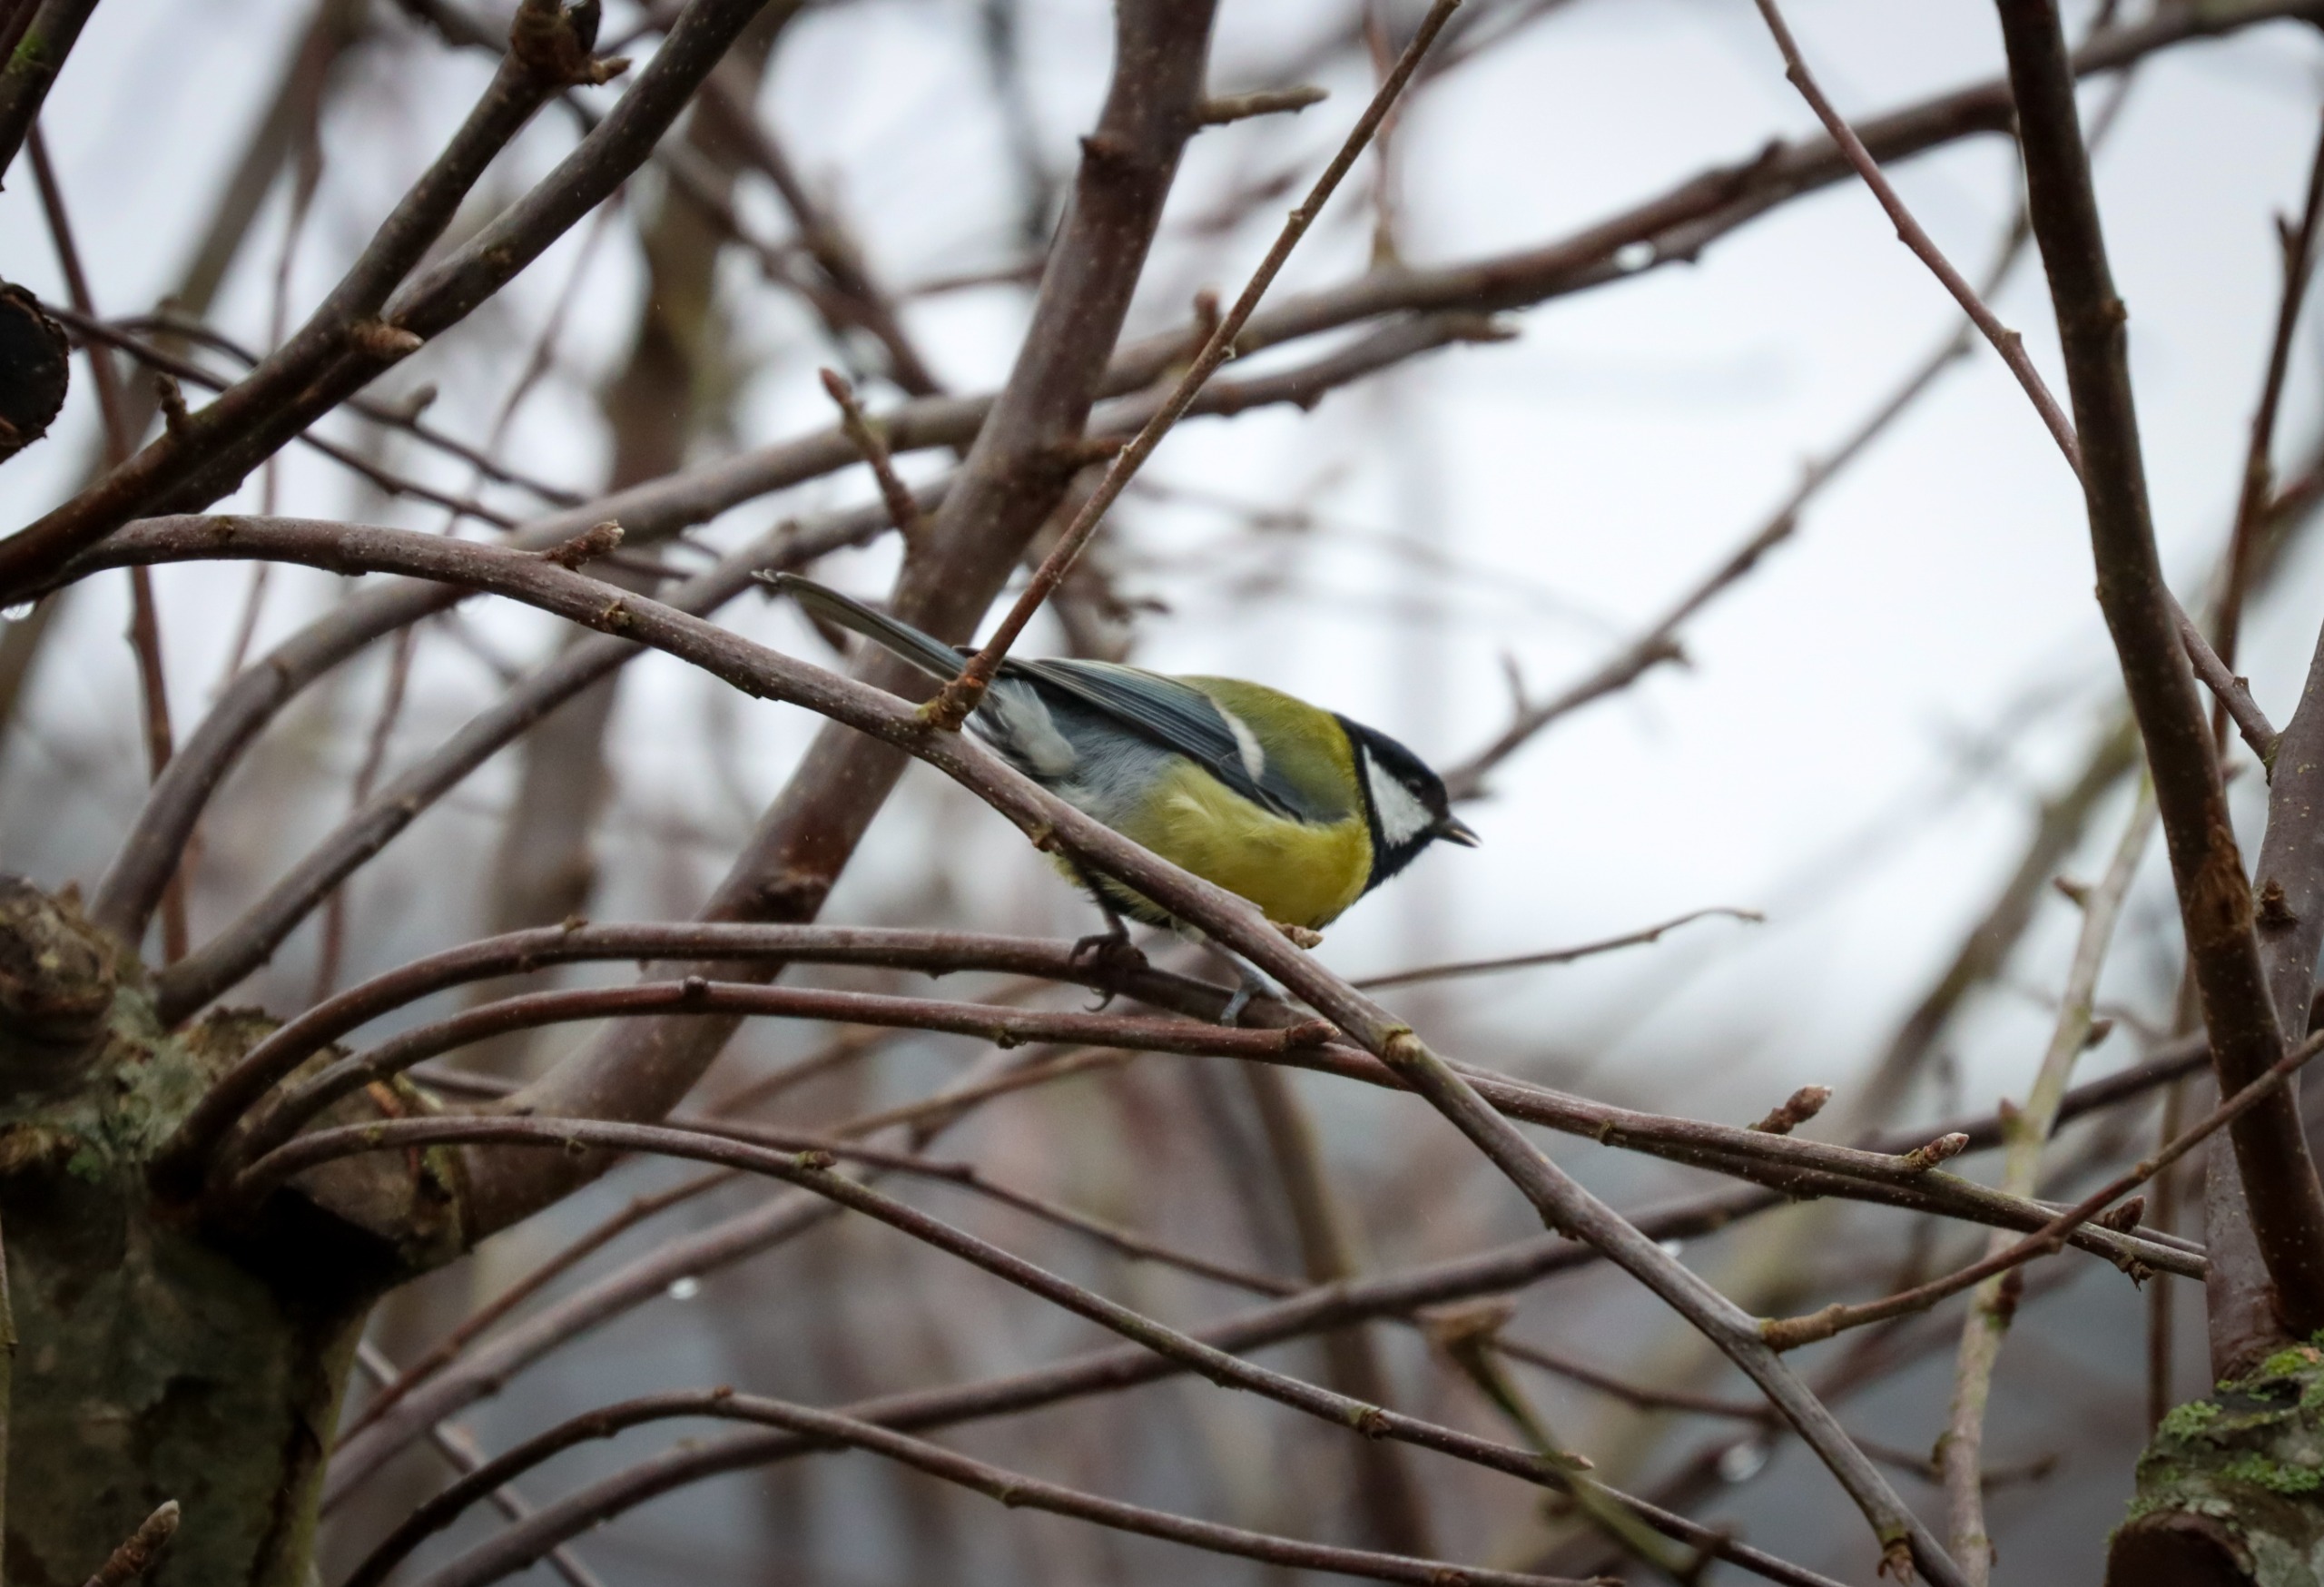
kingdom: Animalia
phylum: Chordata
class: Aves
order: Passeriformes
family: Paridae
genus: Parus
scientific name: Parus major
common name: Musvit
